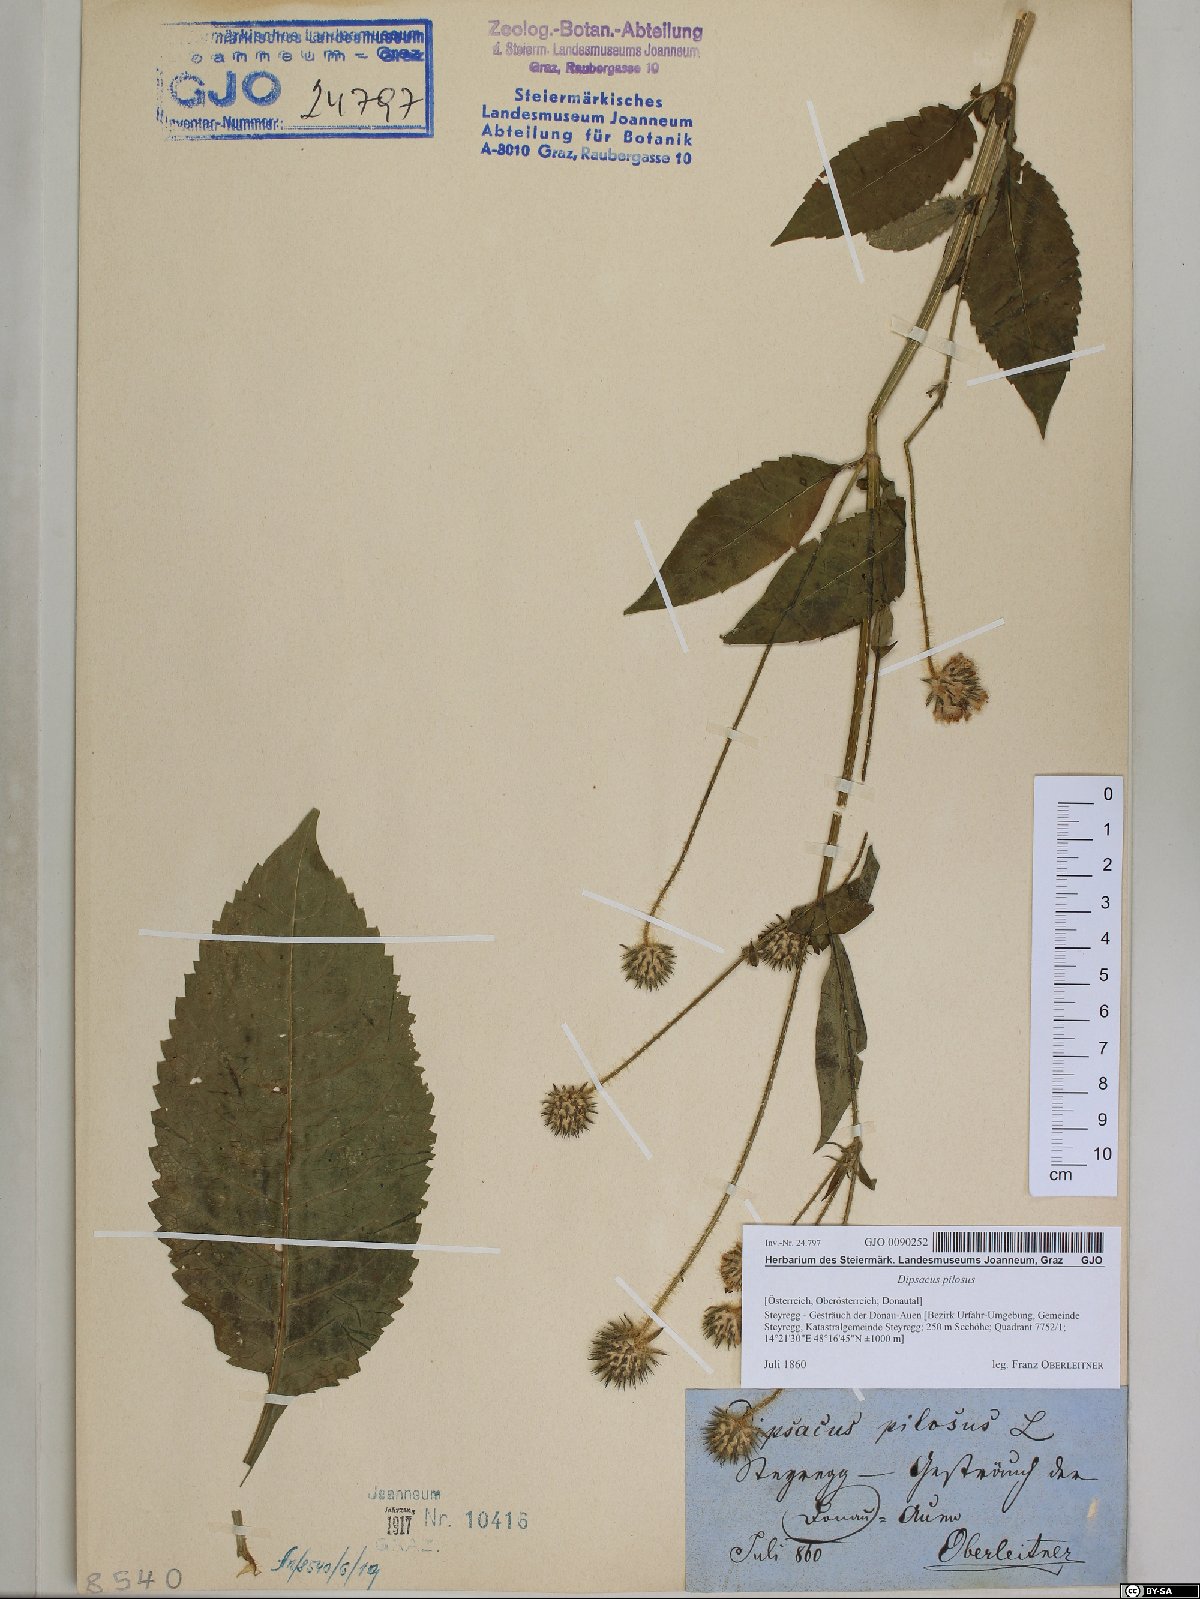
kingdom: Plantae
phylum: Tracheophyta
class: Magnoliopsida
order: Dipsacales
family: Caprifoliaceae
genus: Dipsacus
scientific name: Dipsacus pilosus
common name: Small teasel
